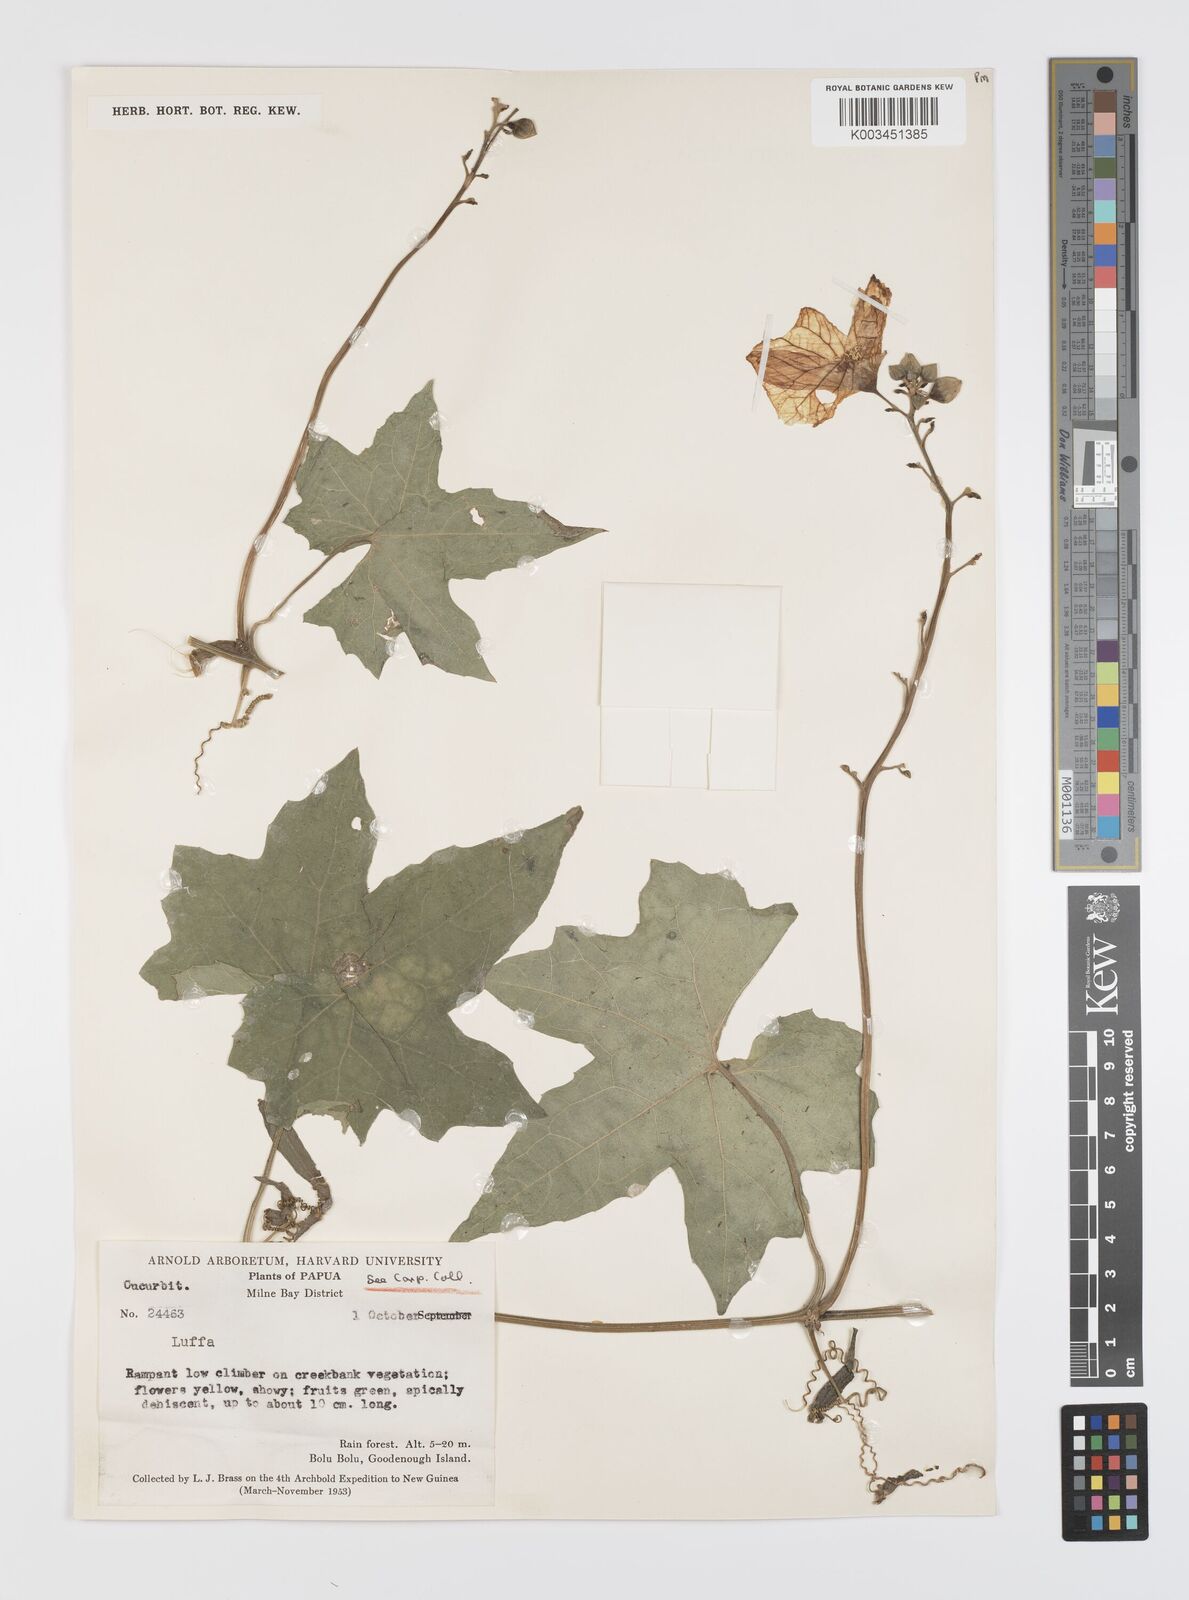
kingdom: Plantae
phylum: Tracheophyta
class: Magnoliopsida
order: Cucurbitales
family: Cucurbitaceae
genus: Luffa
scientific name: Luffa
